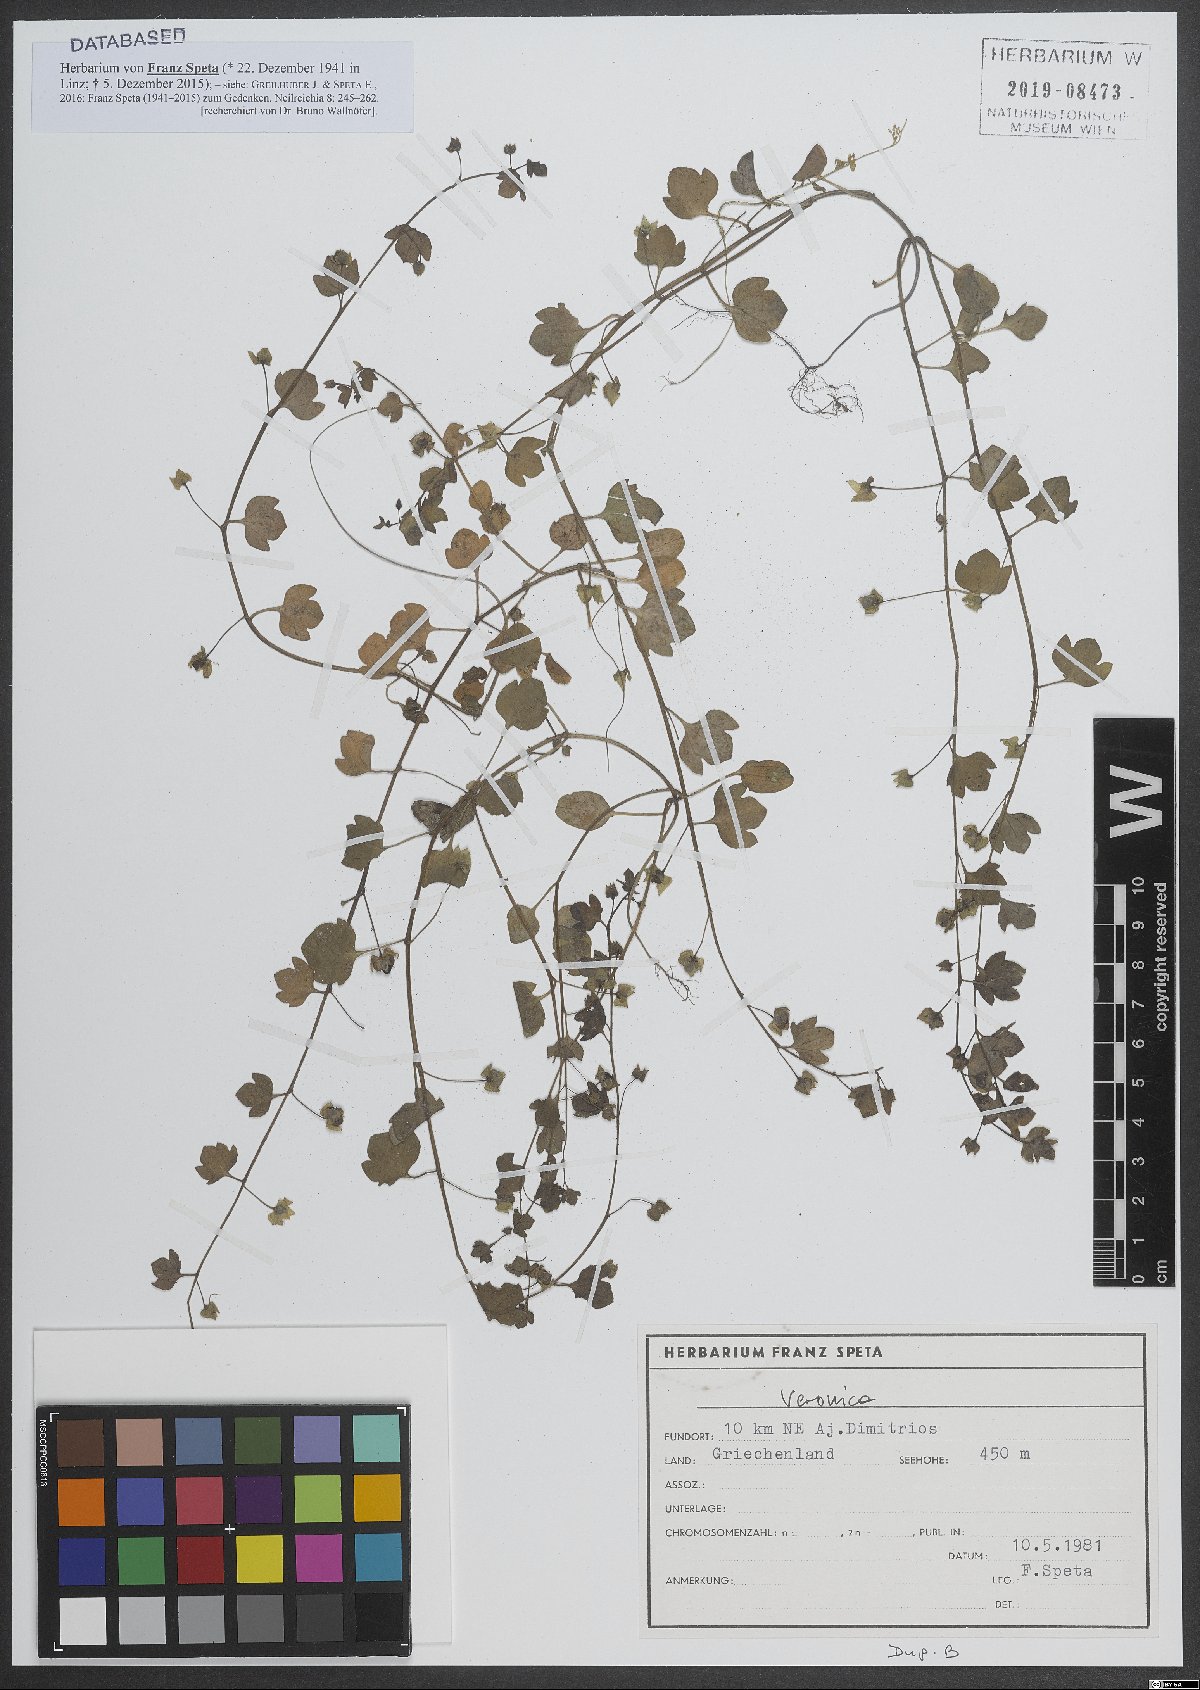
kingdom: Plantae
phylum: Tracheophyta
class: Magnoliopsida
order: Lamiales
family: Plantaginaceae
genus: Veronica
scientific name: Veronica
